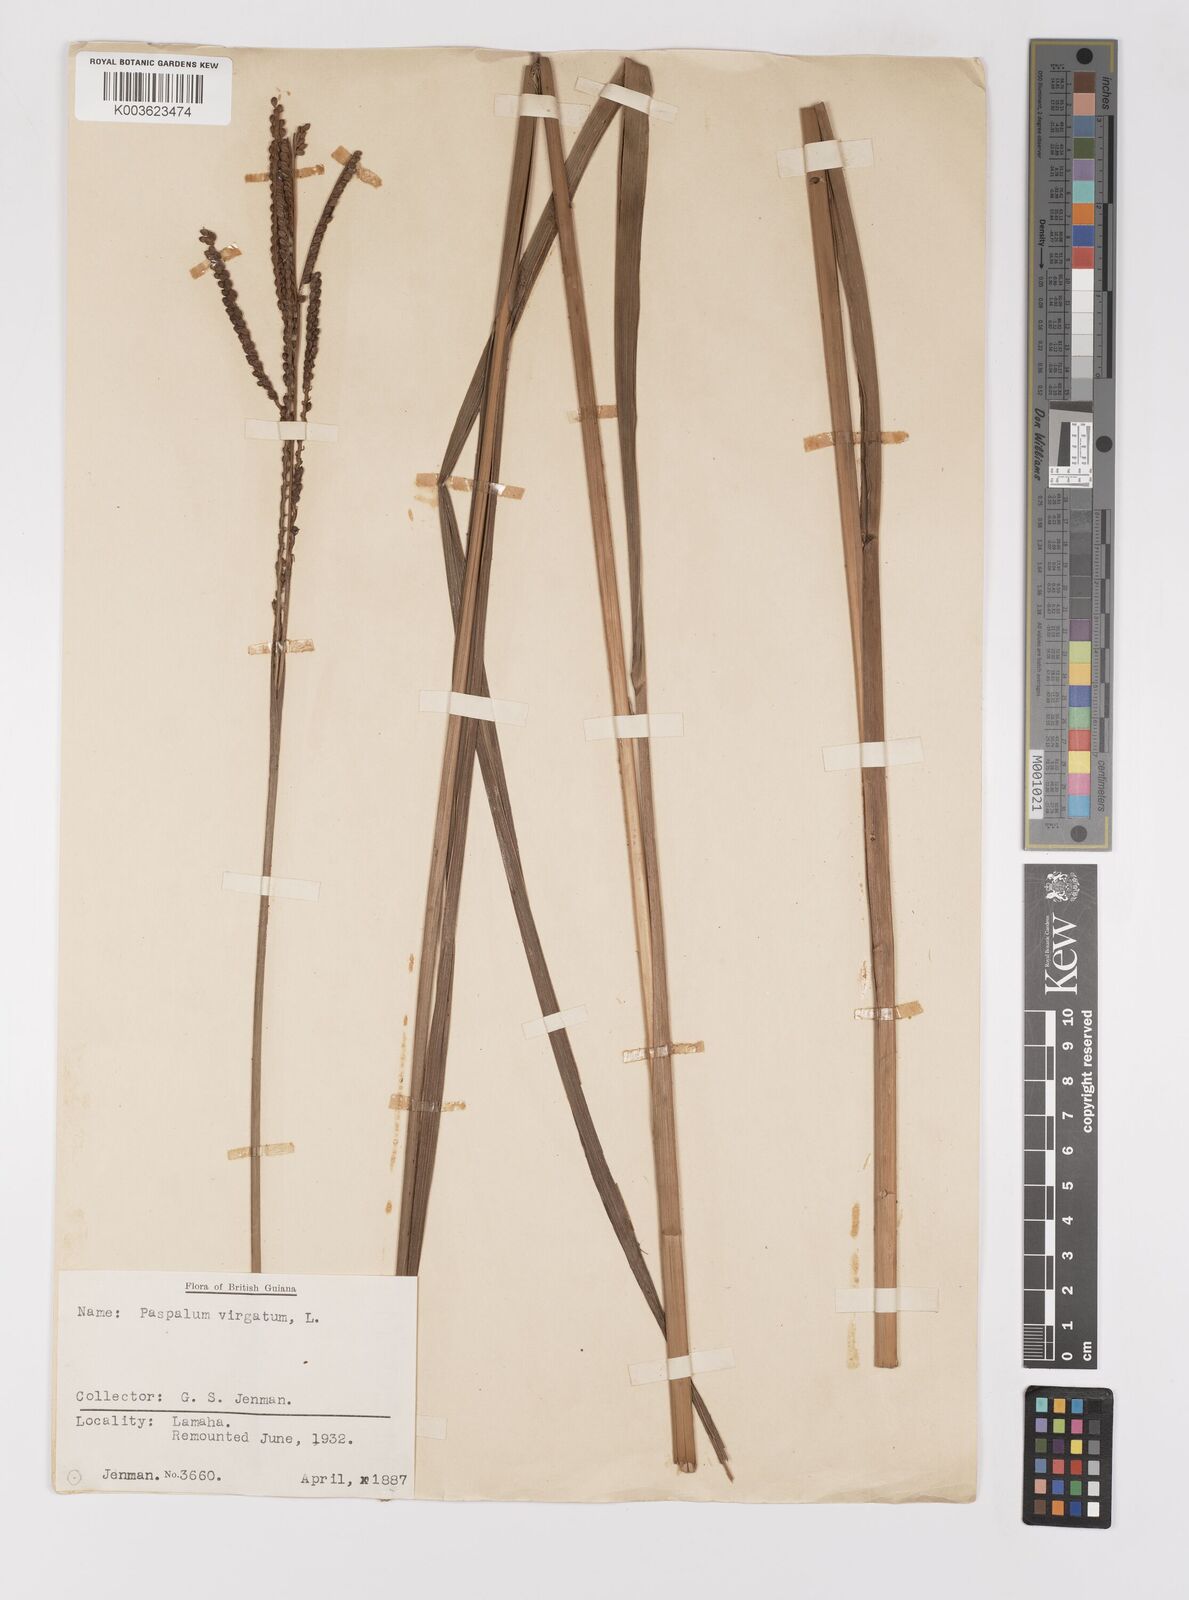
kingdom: Plantae
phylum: Tracheophyta
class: Liliopsida
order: Poales
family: Poaceae
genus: Paspalum
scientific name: Paspalum virgatum
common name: Talquezal
